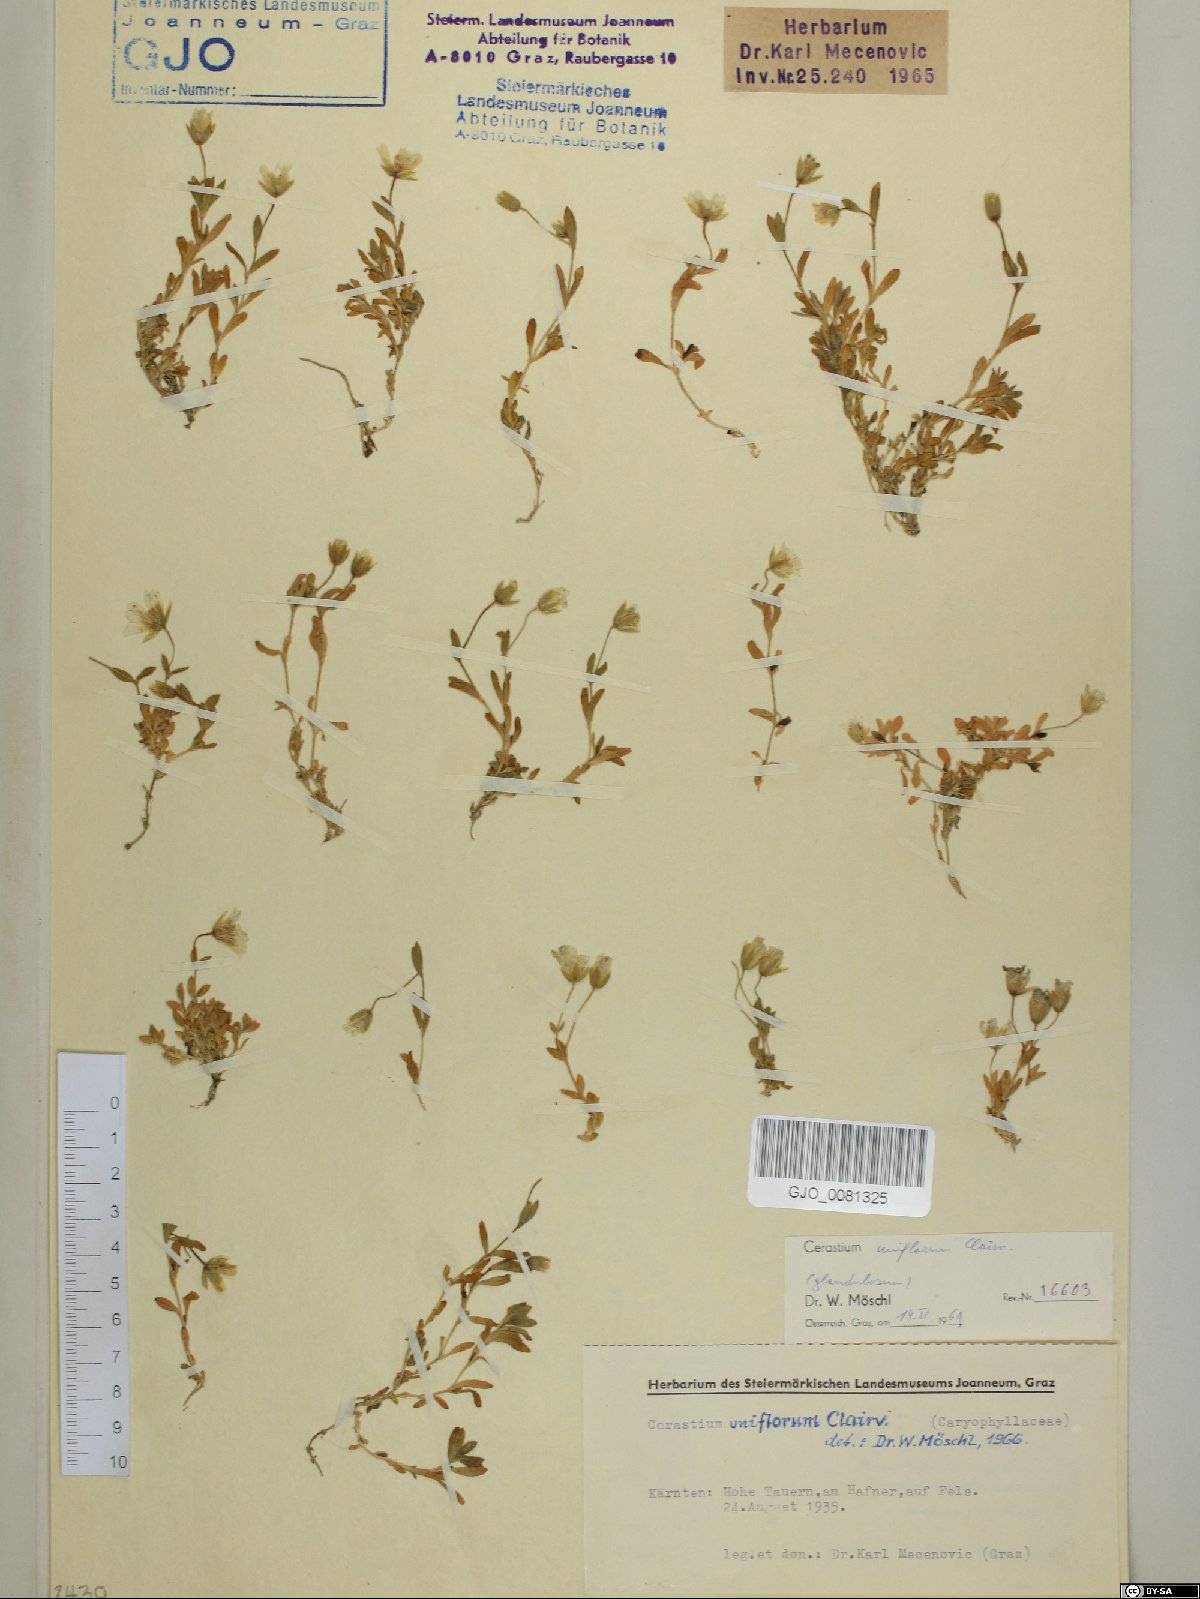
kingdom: Plantae
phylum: Tracheophyta
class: Magnoliopsida
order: Caryophyllales
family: Caryophyllaceae
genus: Cerastium
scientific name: Cerastium uniflorum
